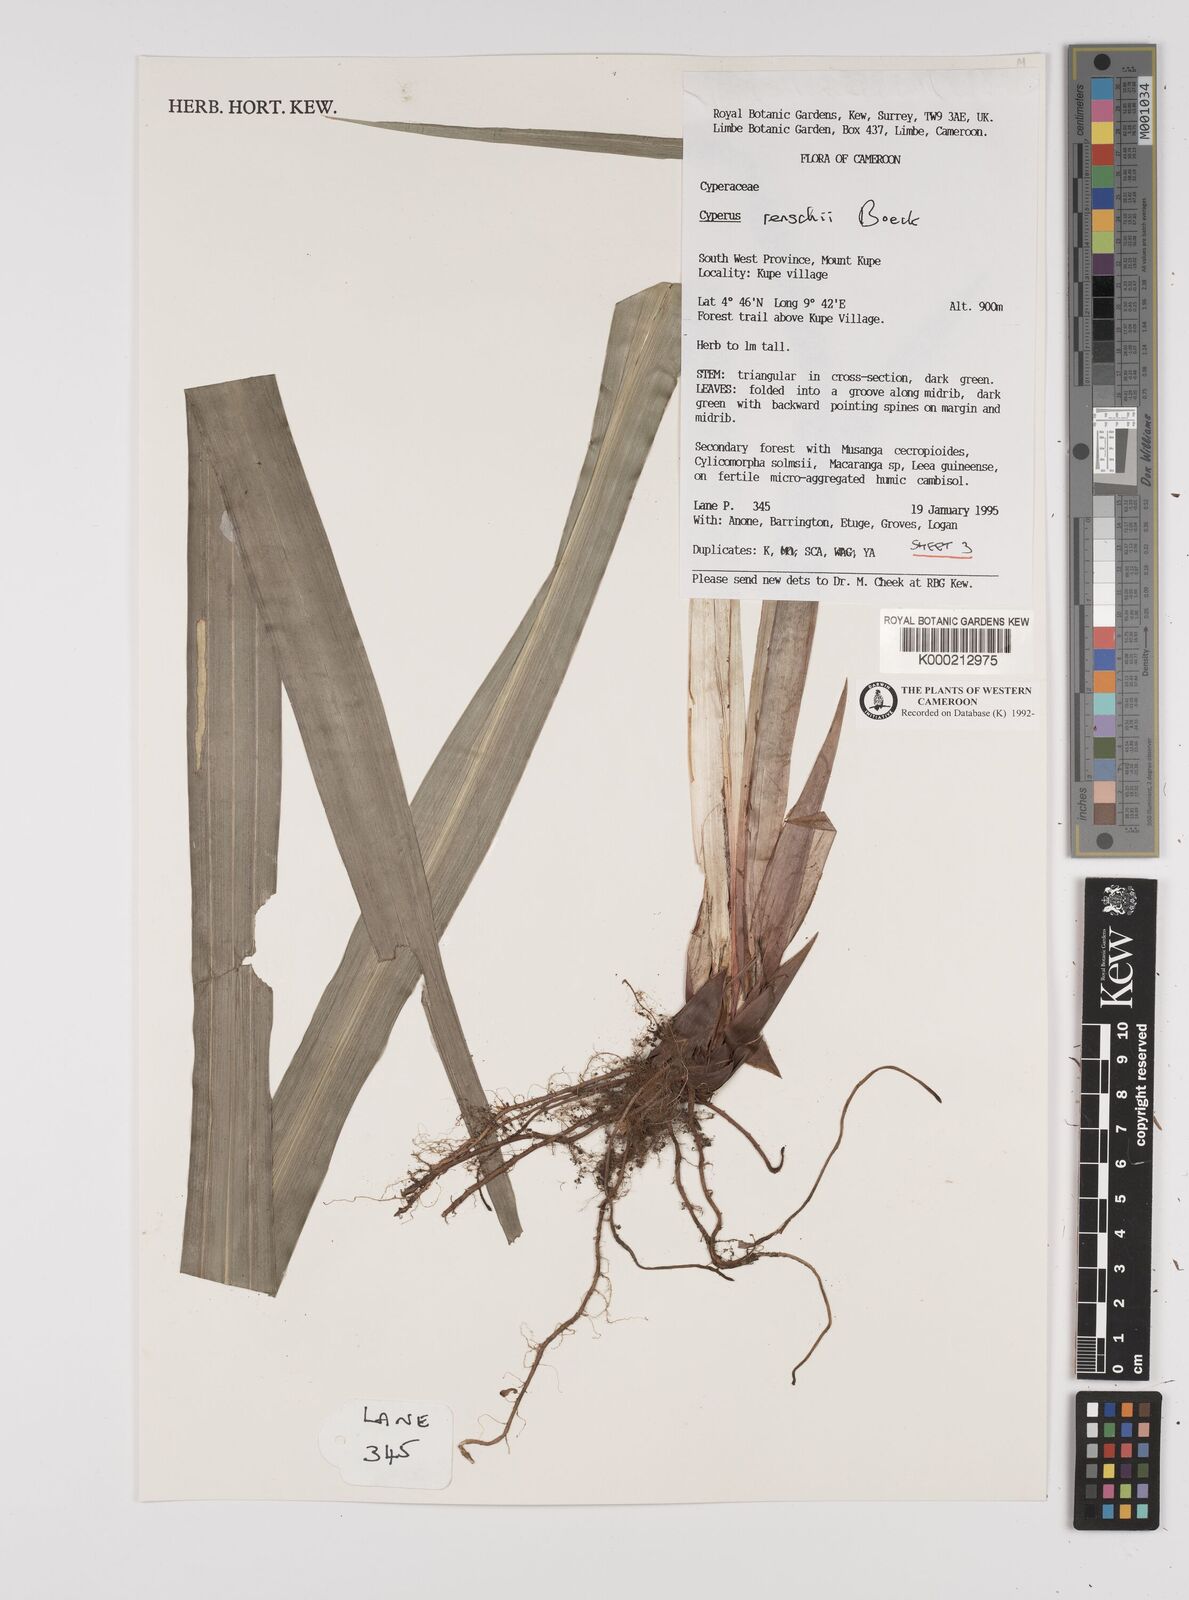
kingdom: Plantae
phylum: Tracheophyta
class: Liliopsida
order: Poales
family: Cyperaceae
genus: Cyperus
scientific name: Cyperus renschii
